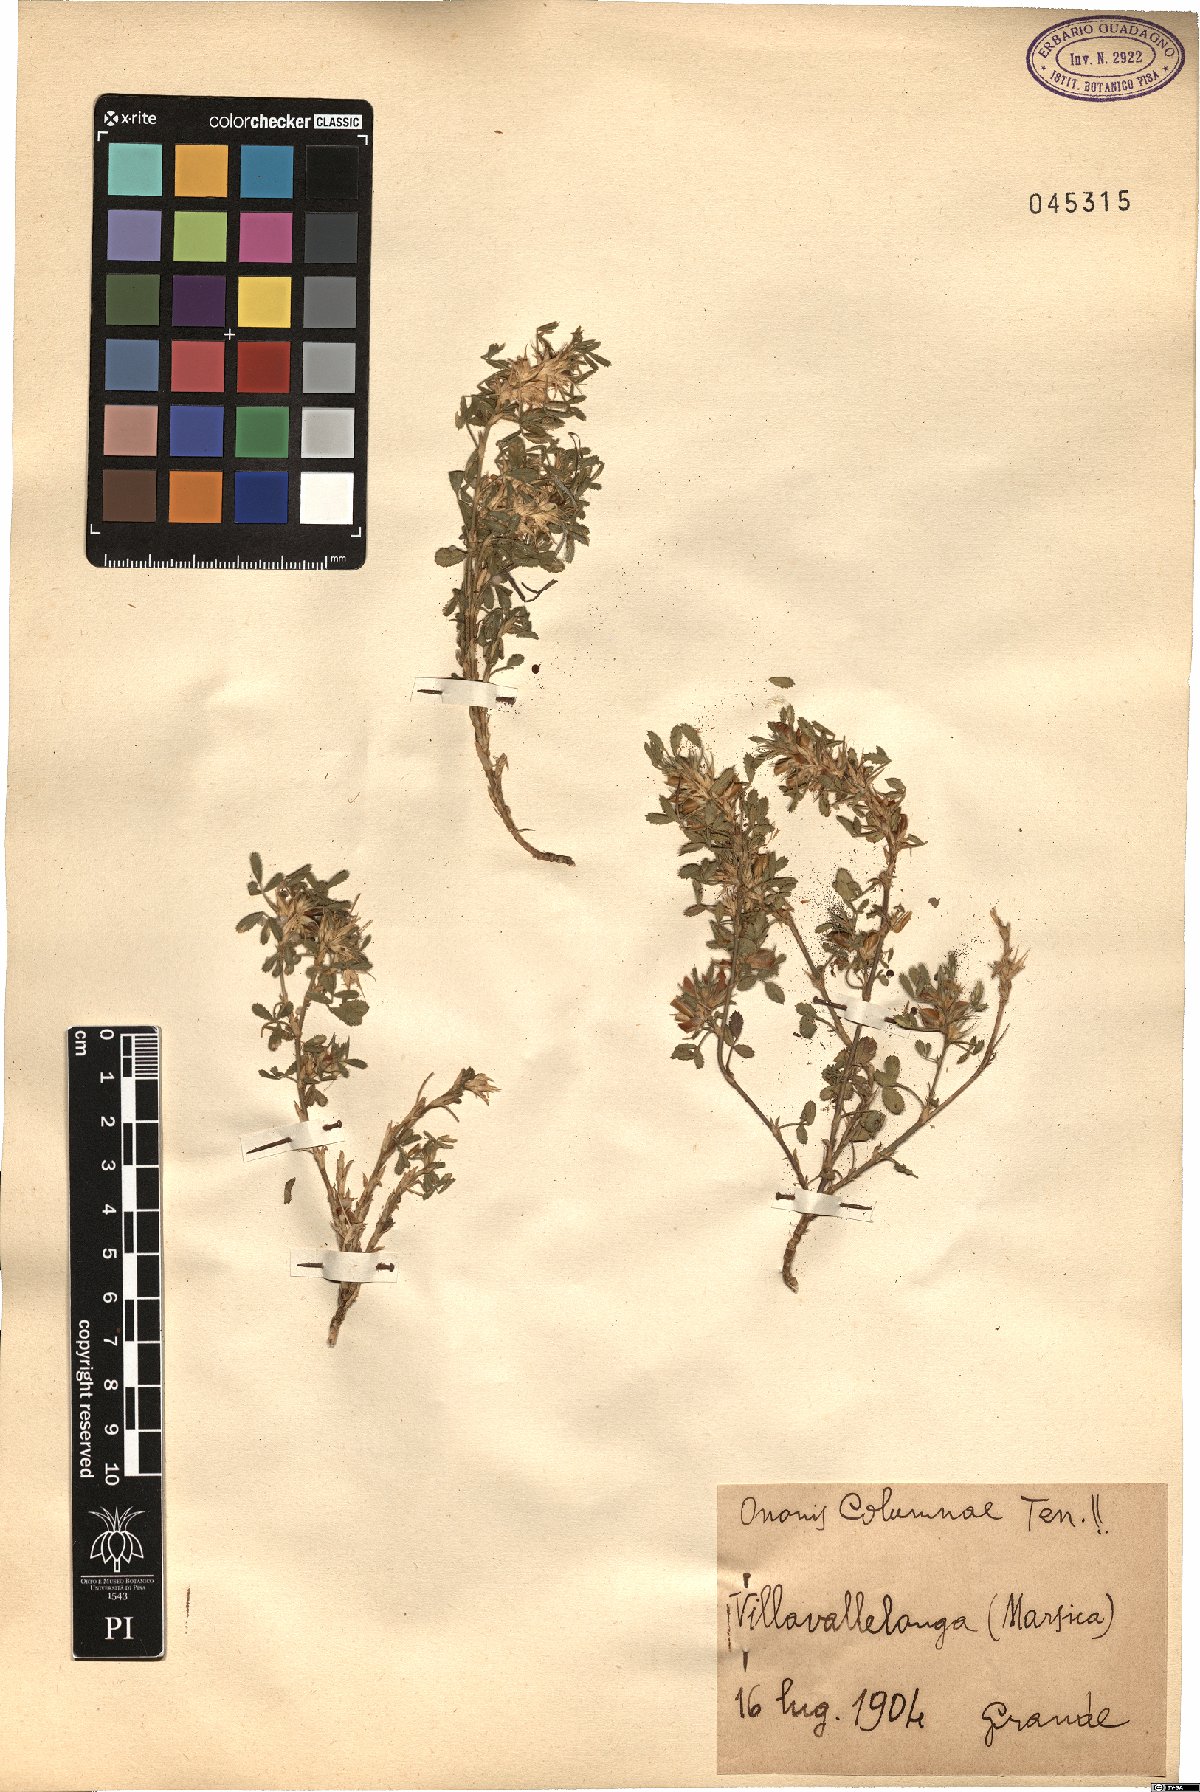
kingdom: Plantae
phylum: Tracheophyta
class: Magnoliopsida
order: Fabales
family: Fabaceae
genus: Ononis
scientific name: Ononis pusilla
